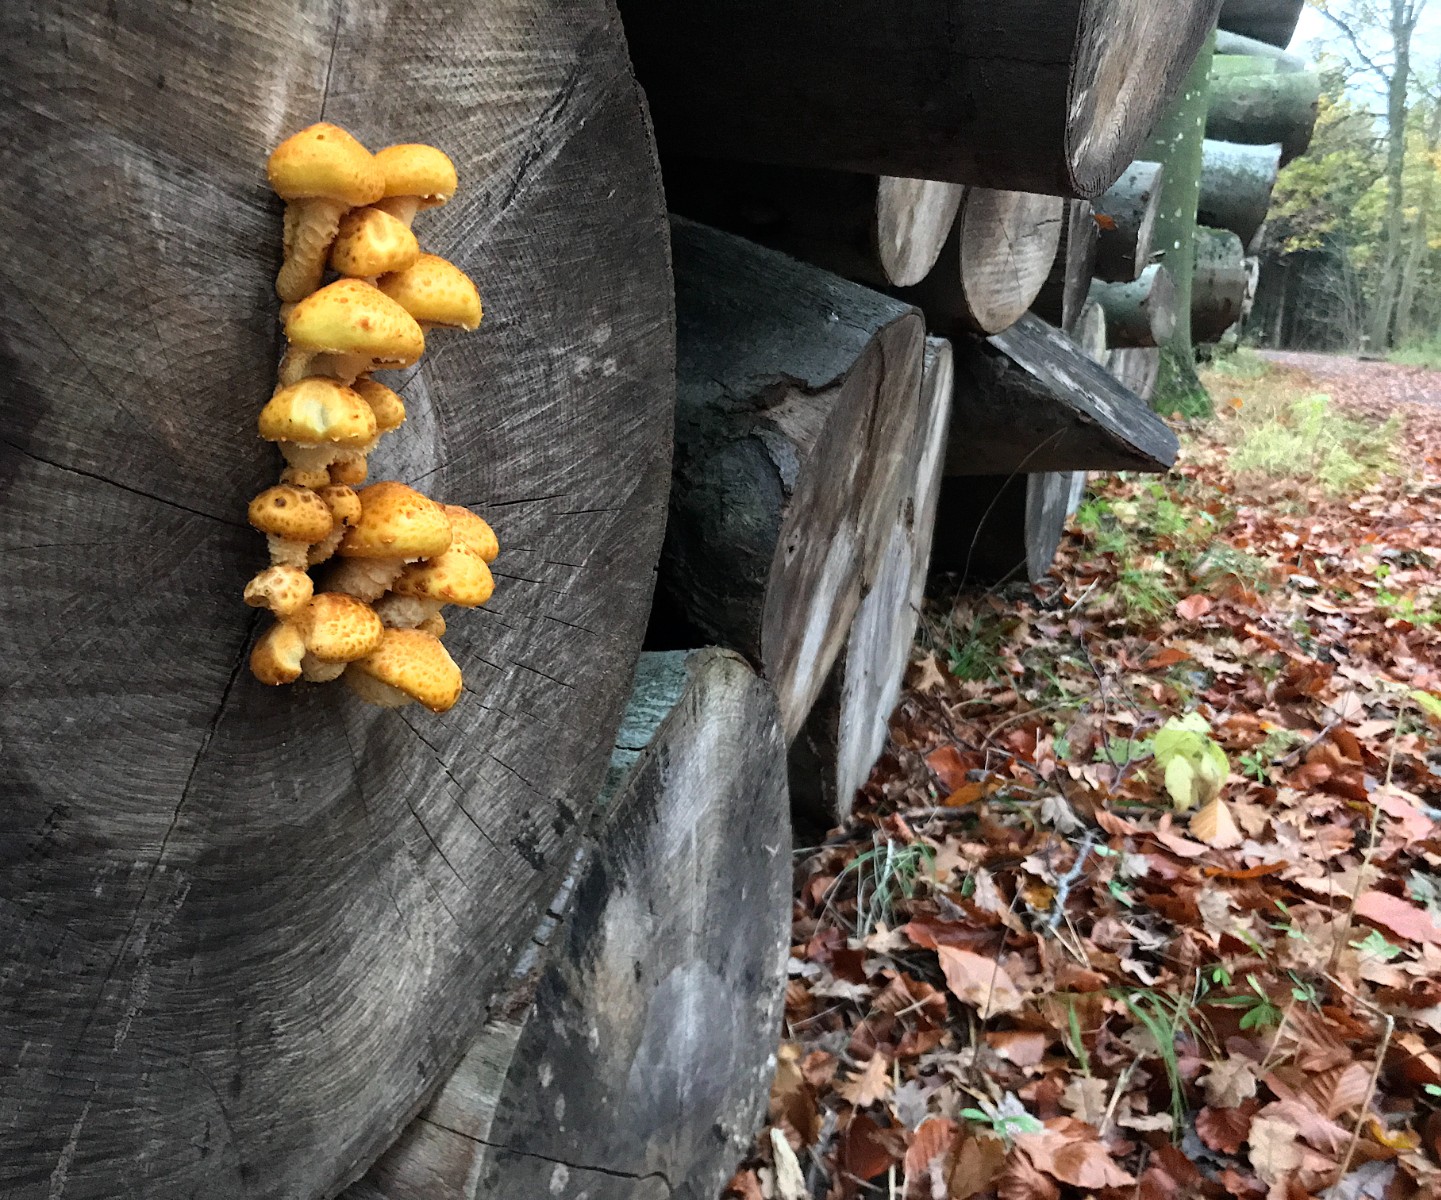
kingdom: Fungi
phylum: Basidiomycota
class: Agaricomycetes
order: Agaricales
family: Strophariaceae
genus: Pholiota
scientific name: Pholiota adiposa
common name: højtsiddende skælhat
